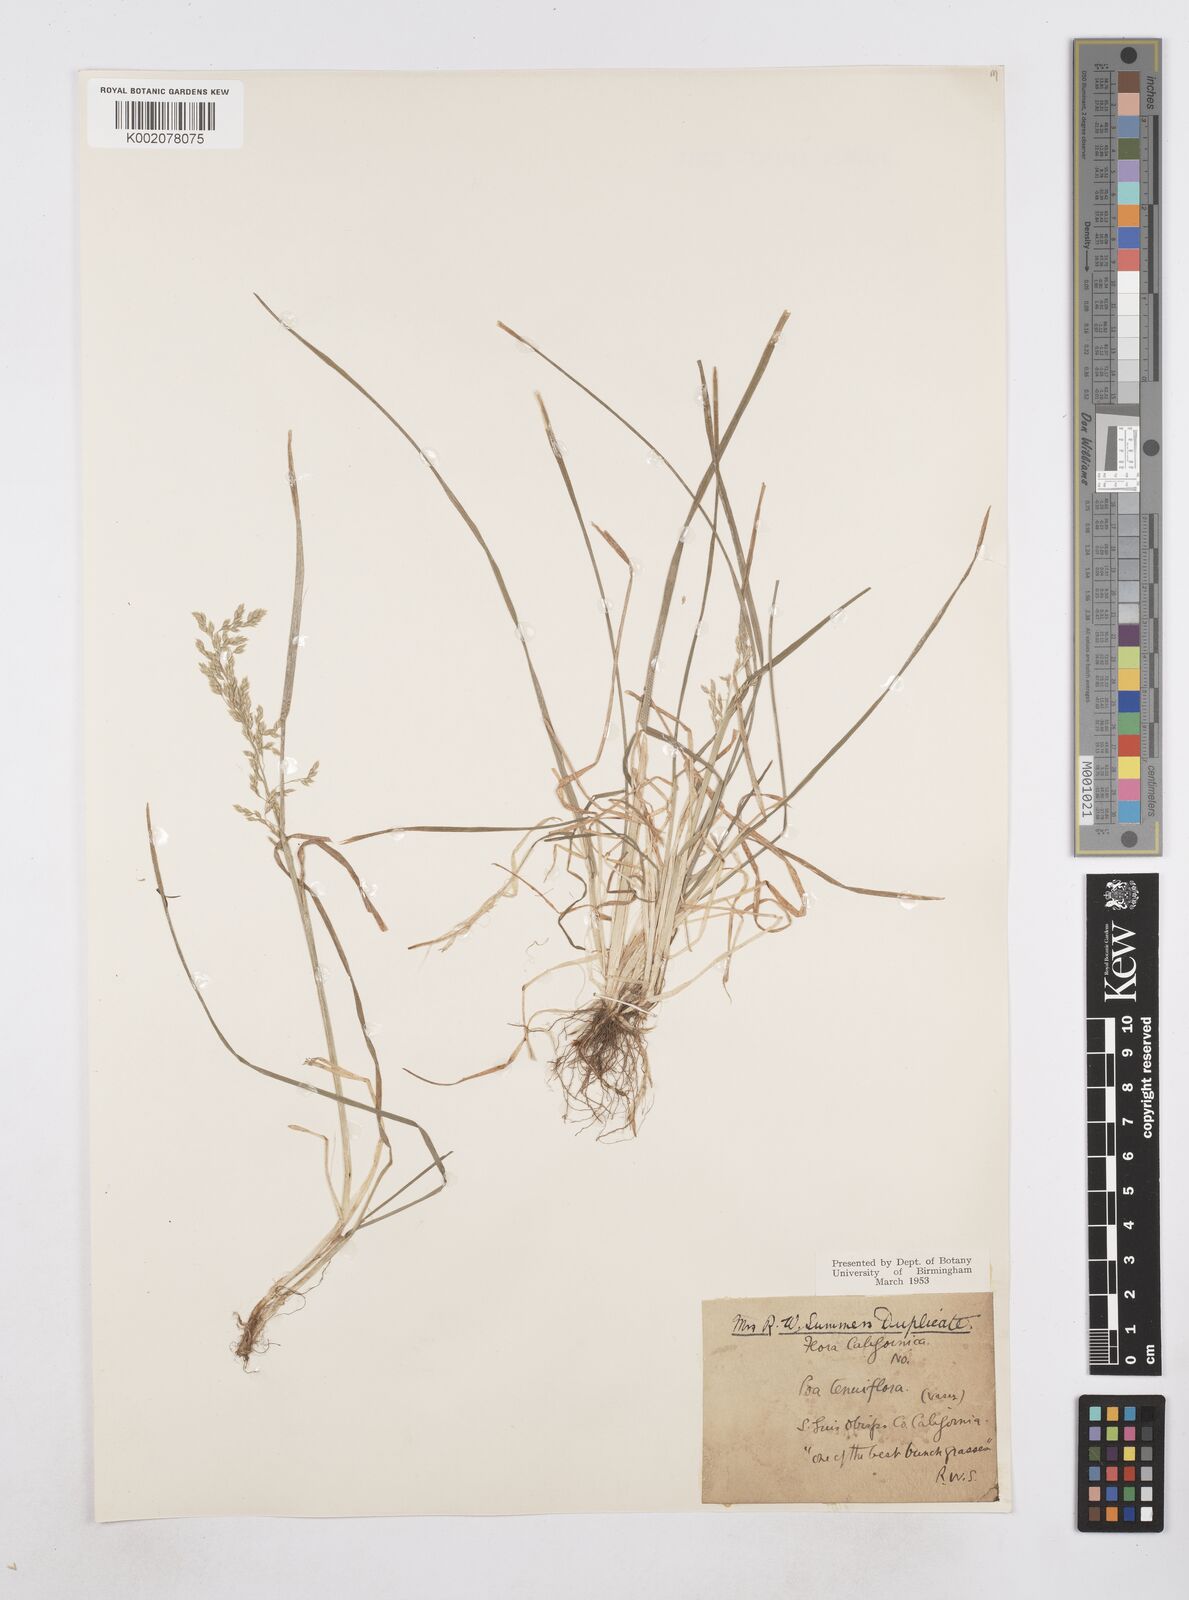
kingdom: Plantae
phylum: Tracheophyta
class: Liliopsida
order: Poales
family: Poaceae
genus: Poa
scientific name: Poa
